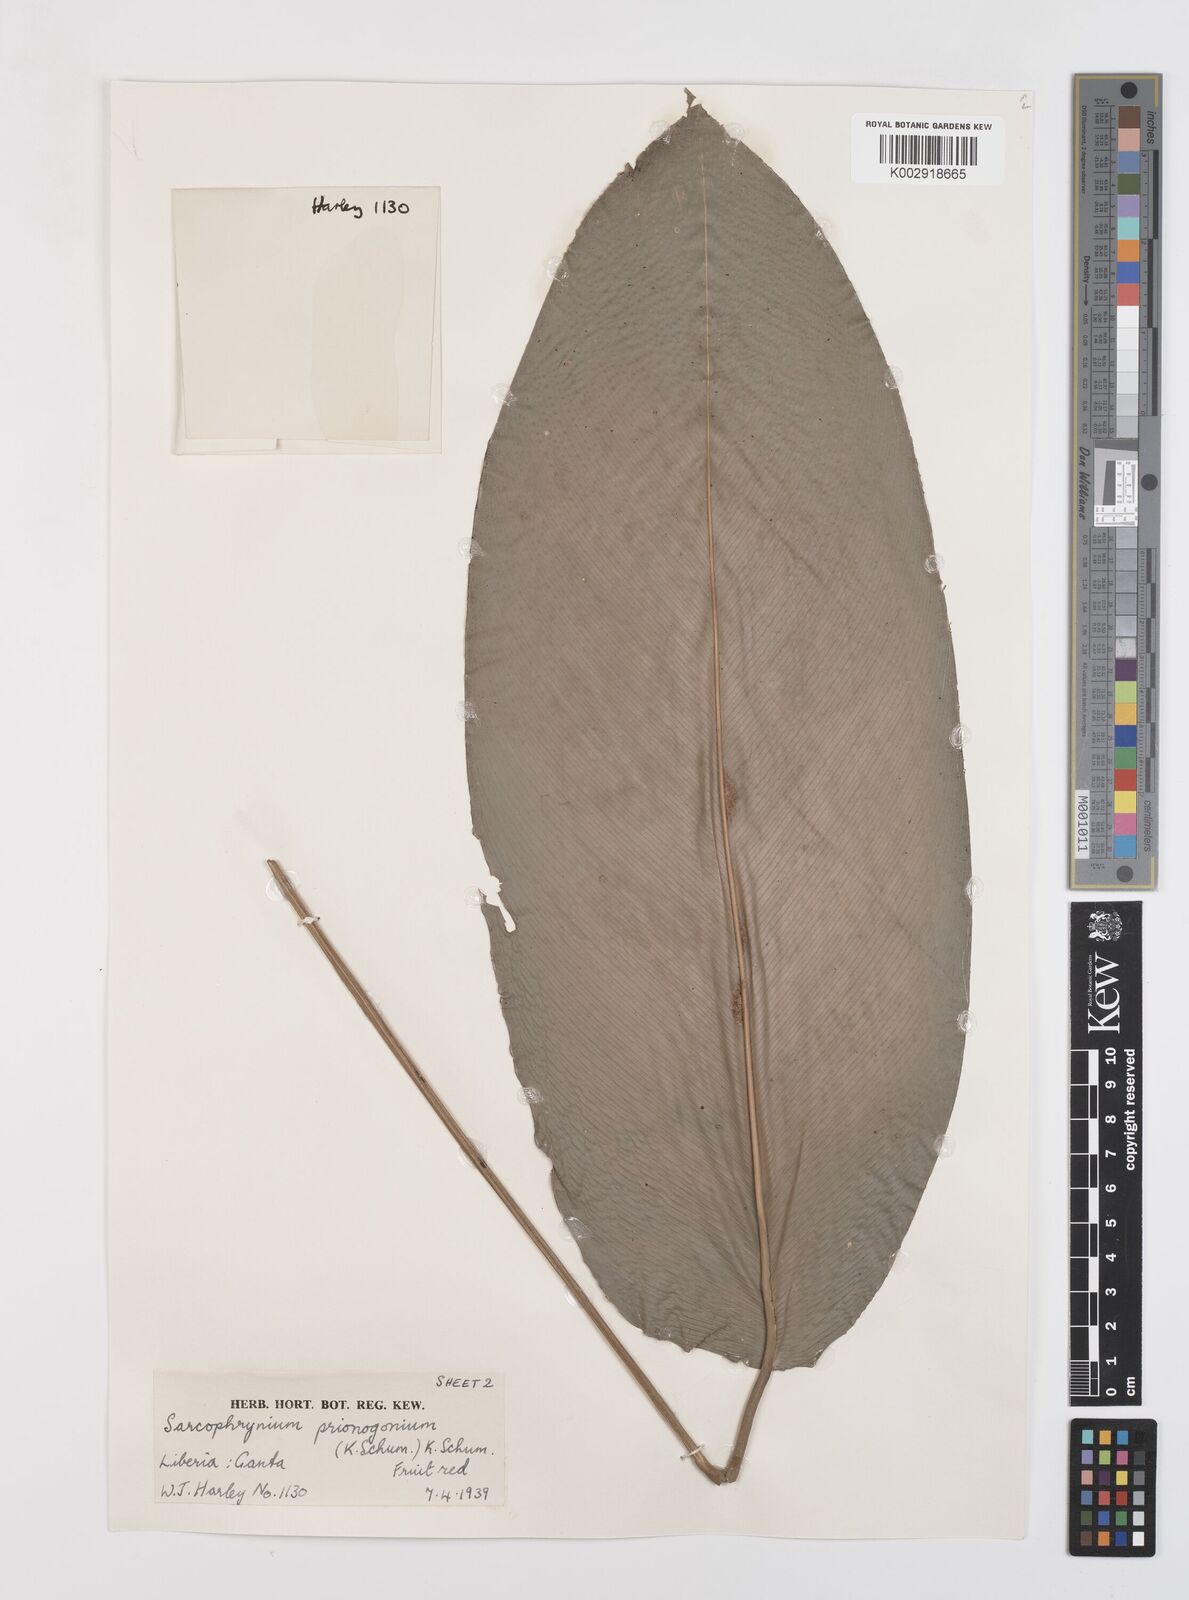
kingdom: Plantae
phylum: Tracheophyta
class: Liliopsida
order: Zingiberales
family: Marantaceae
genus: Sarcophrynium
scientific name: Sarcophrynium prionogonium
